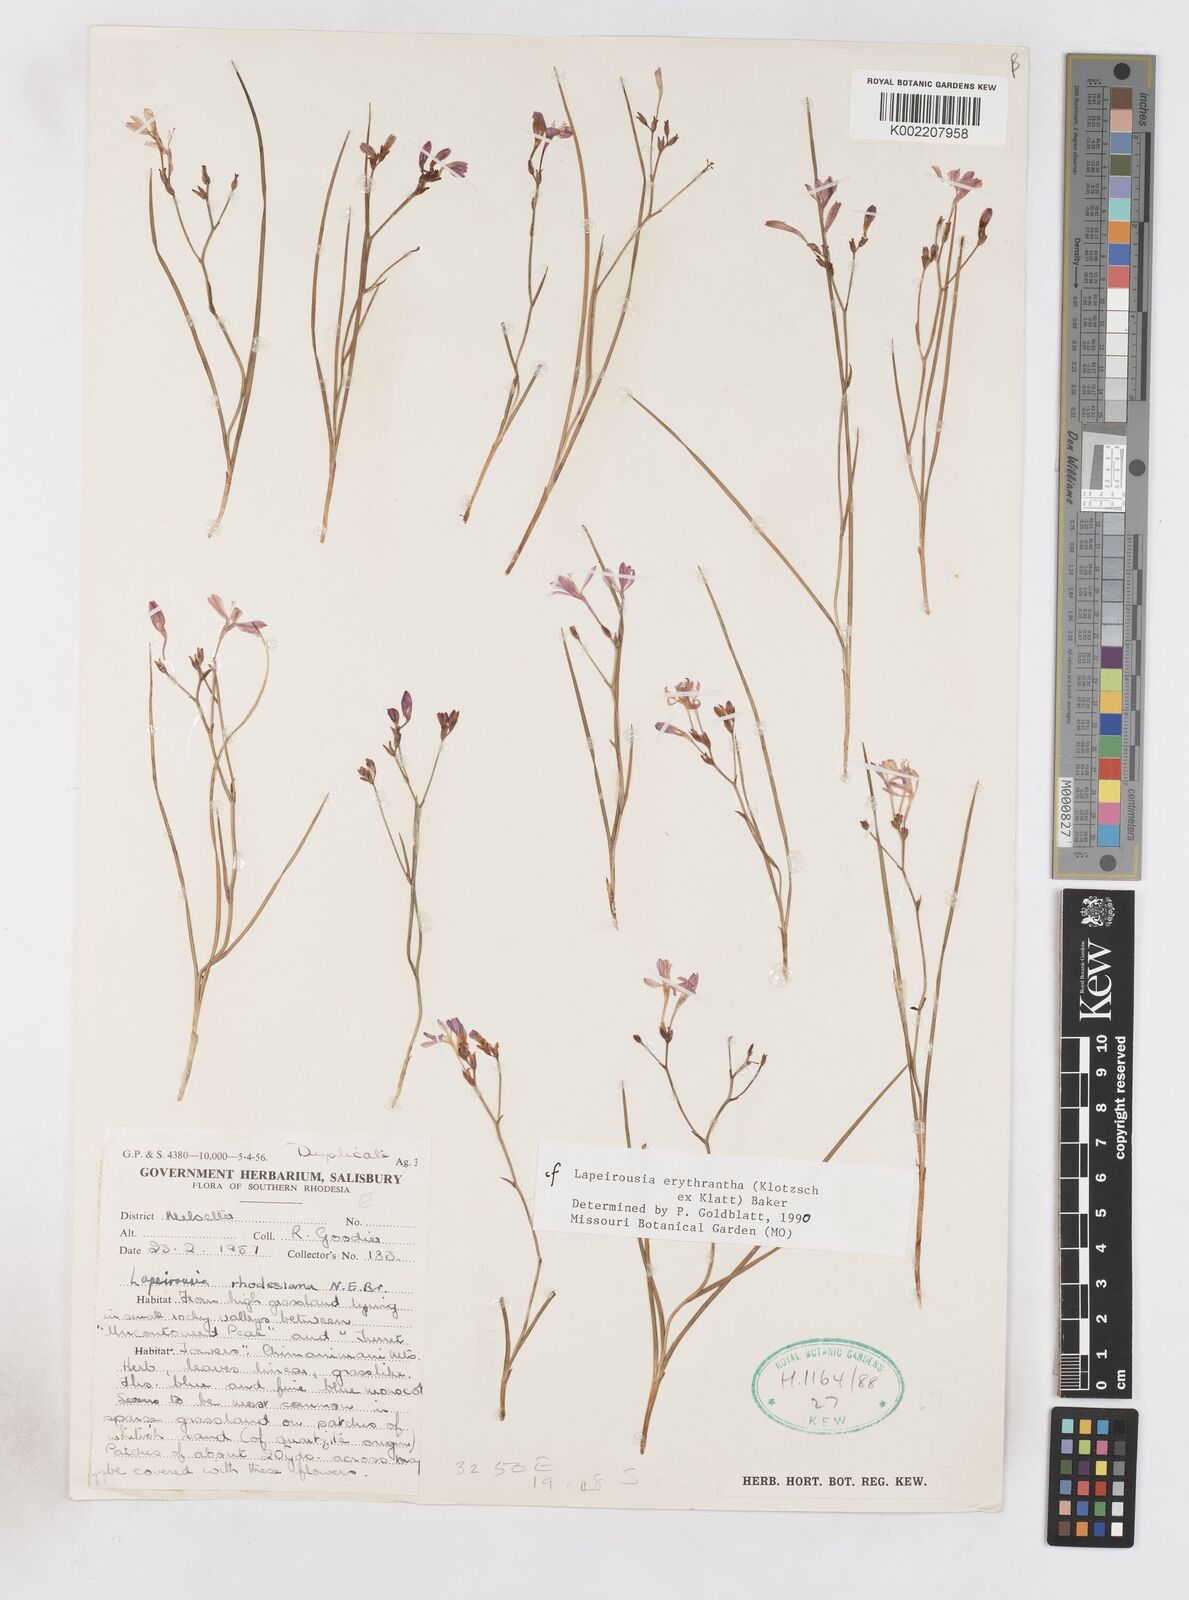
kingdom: Plantae
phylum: Tracheophyta
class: Liliopsida
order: Asparagales
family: Iridaceae
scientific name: Iridaceae
